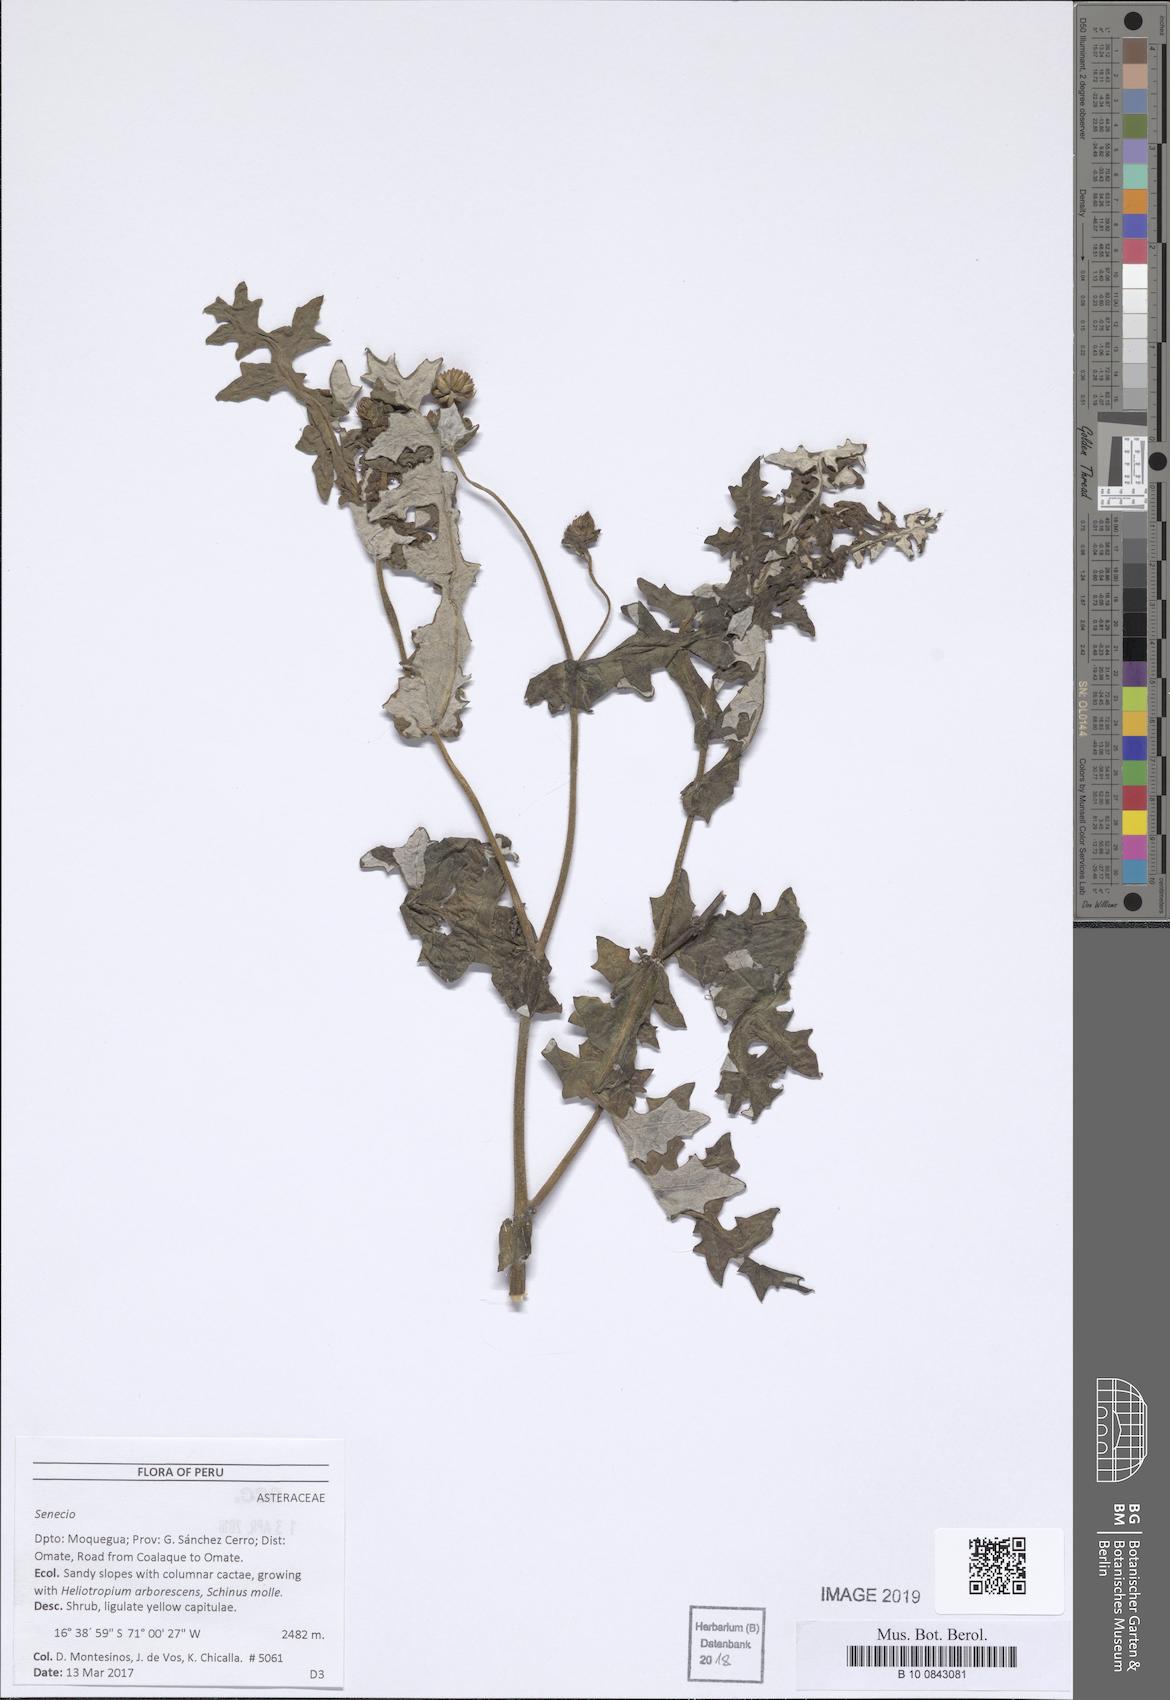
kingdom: Plantae
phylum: Tracheophyta
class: Magnoliopsida
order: Asterales
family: Asteraceae
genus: Lomanthus
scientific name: Lomanthus arnaldii
